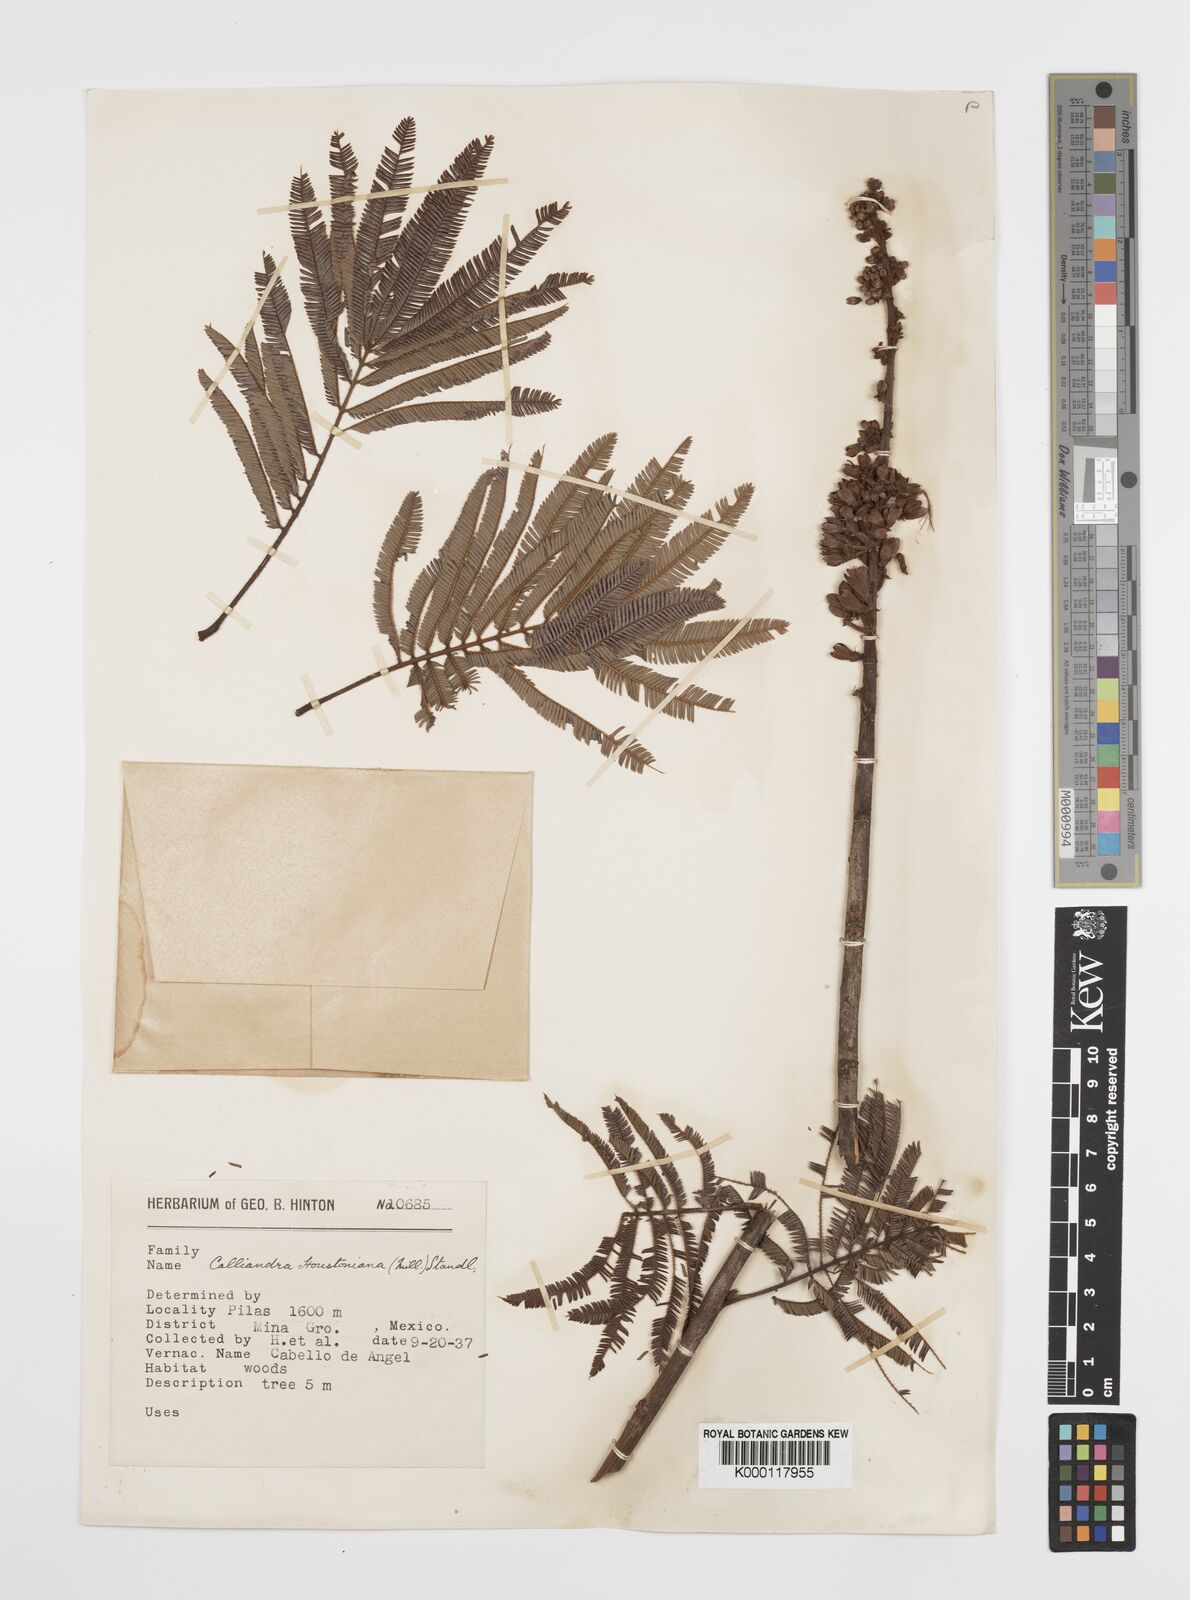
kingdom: Plantae
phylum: Tracheophyta
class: Magnoliopsida
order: Fabales
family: Fabaceae
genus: Calliandra
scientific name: Calliandra houstoniana
